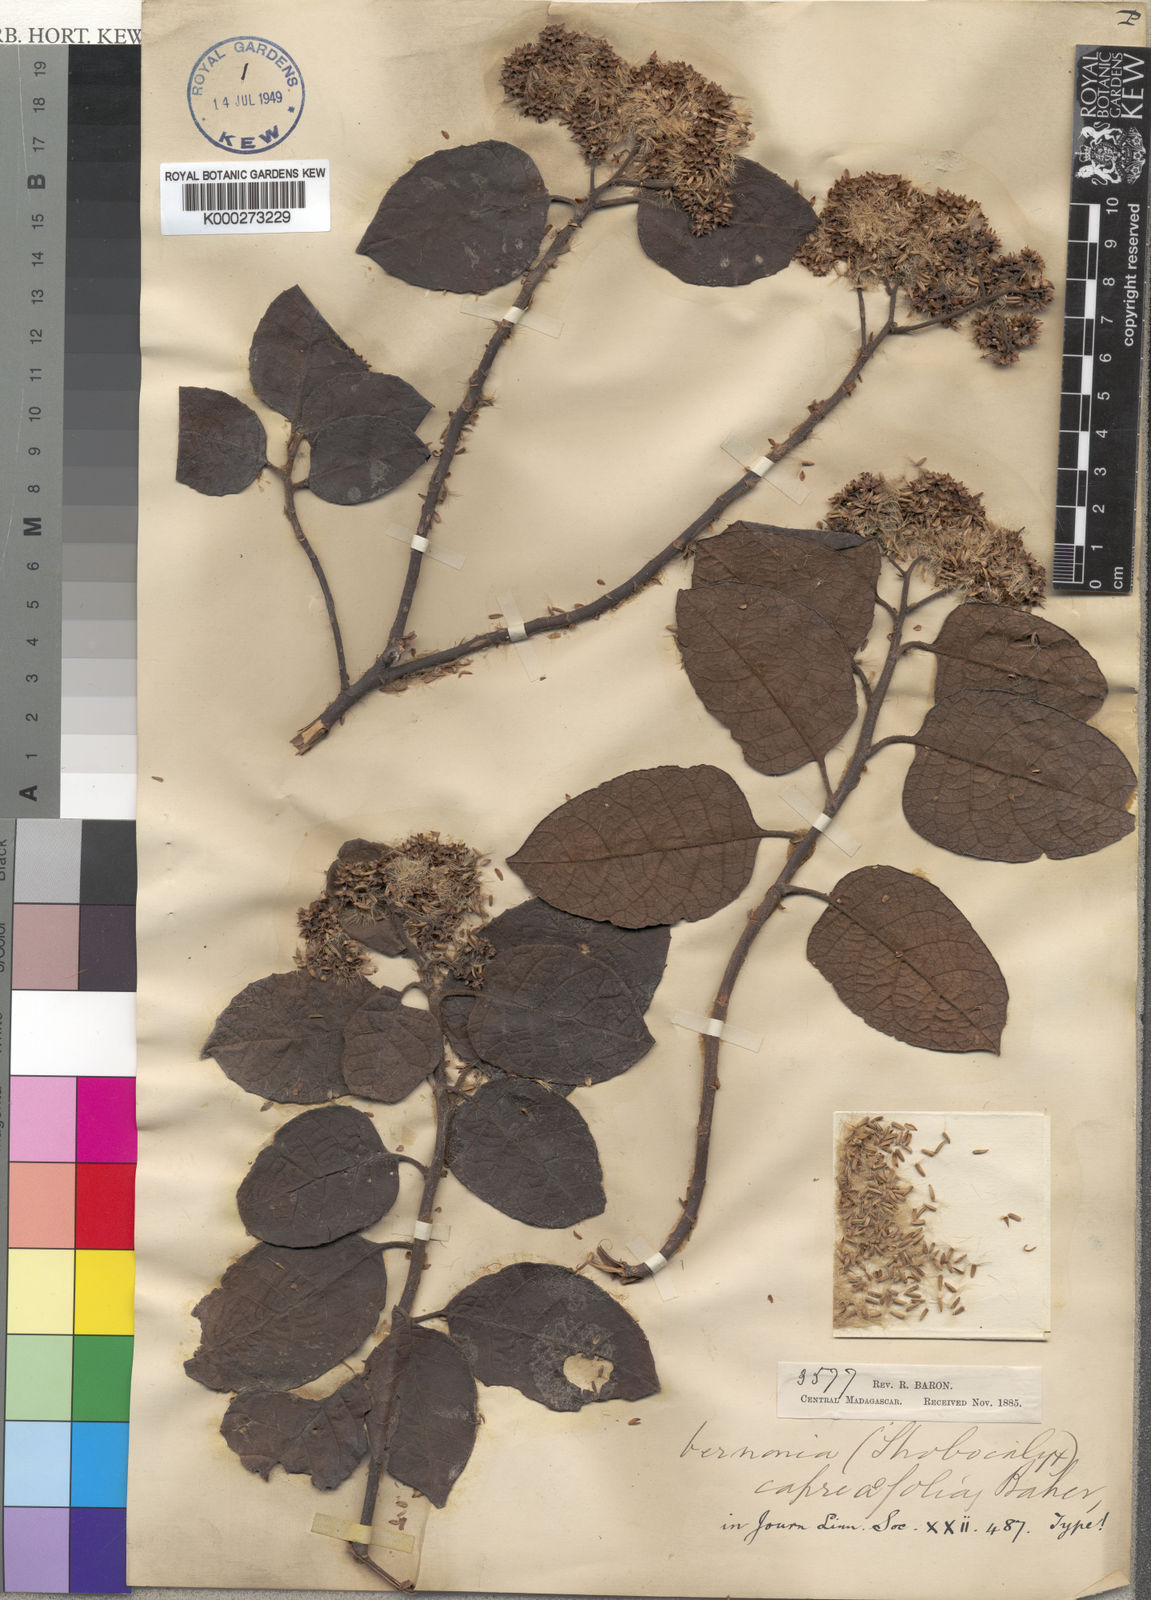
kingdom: Plantae
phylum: Tracheophyta
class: Magnoliopsida
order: Asterales
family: Asteraceae
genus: Gymnanthemum
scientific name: Gymnanthemum dissolutum
